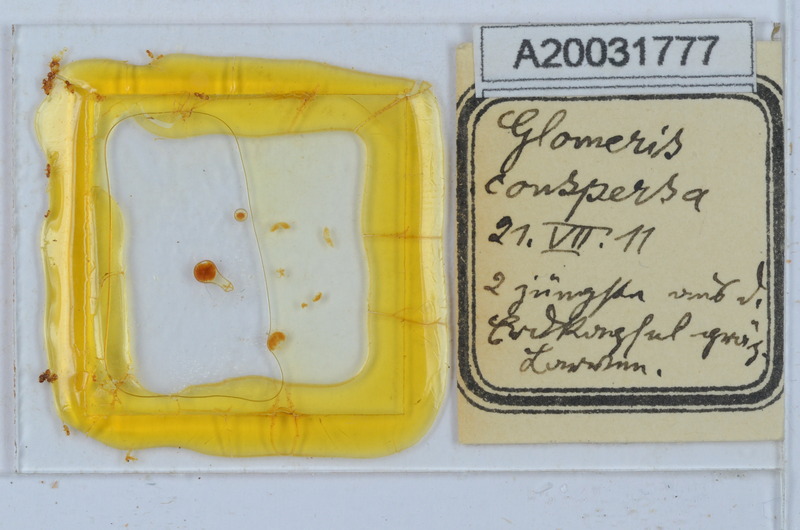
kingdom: Animalia
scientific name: Animalia
